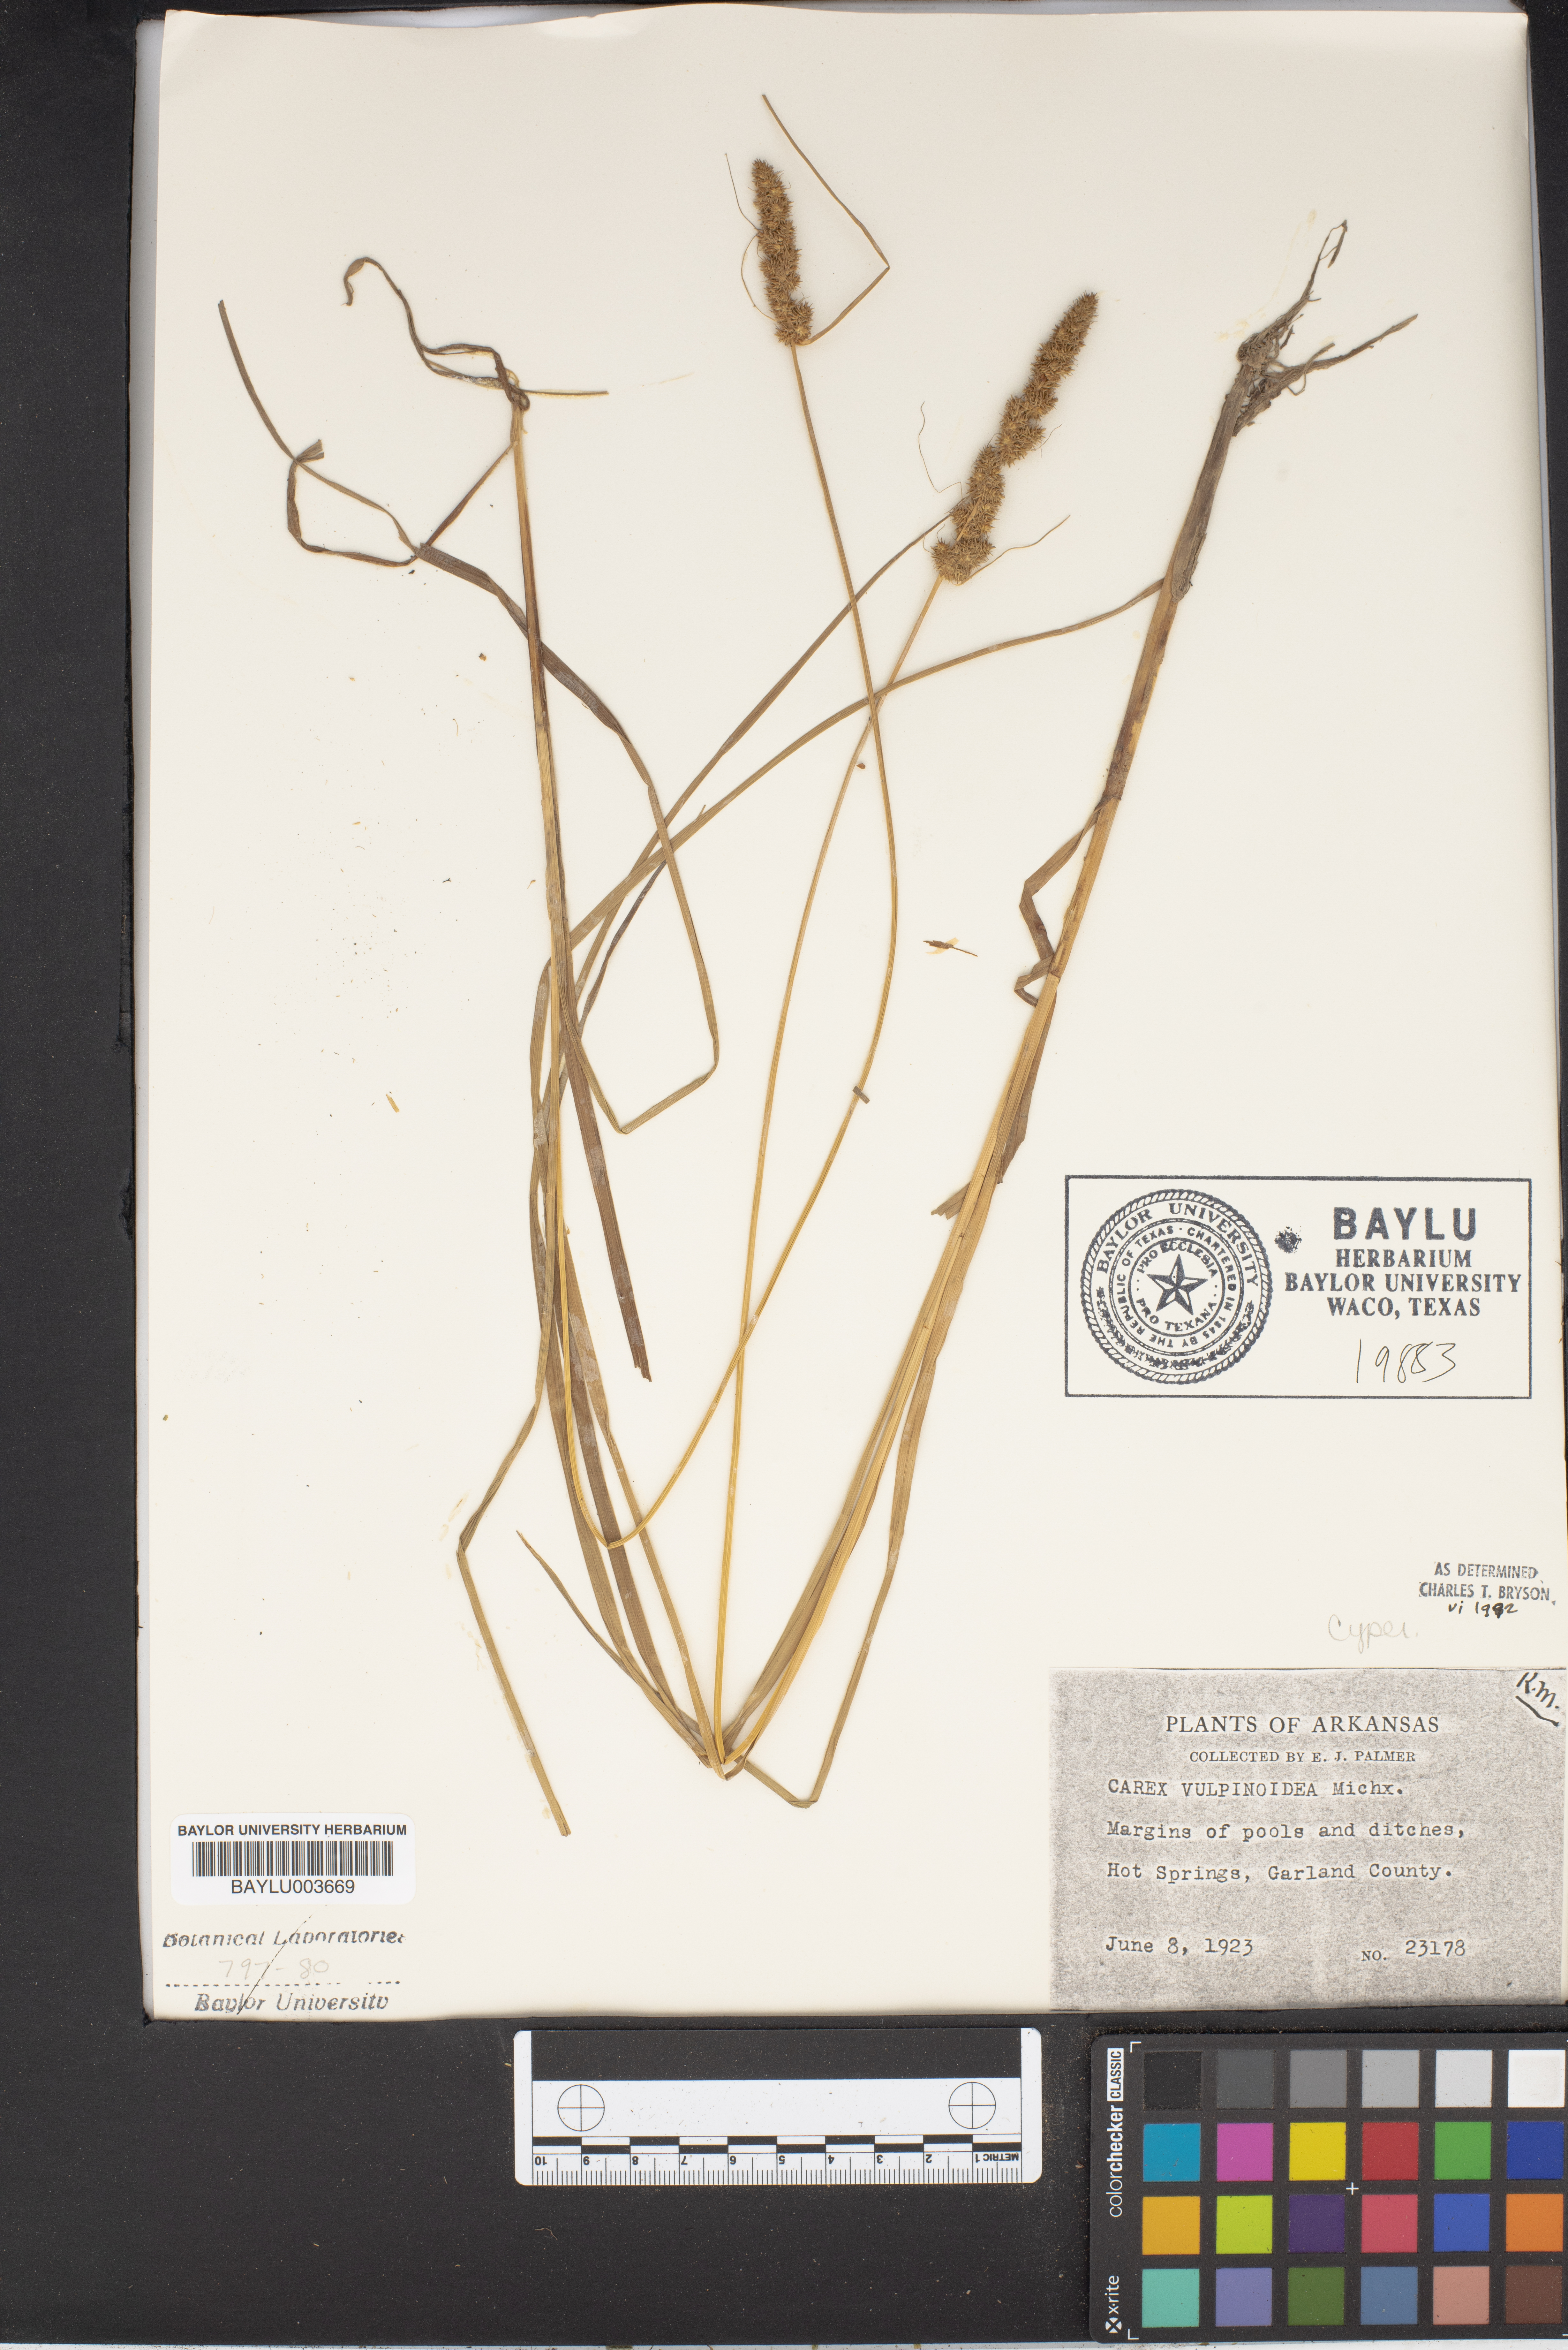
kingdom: Plantae
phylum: Tracheophyta
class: Liliopsida
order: Poales
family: Cyperaceae
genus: Carex
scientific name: Carex vulpinoidea
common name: American fox-sedge
